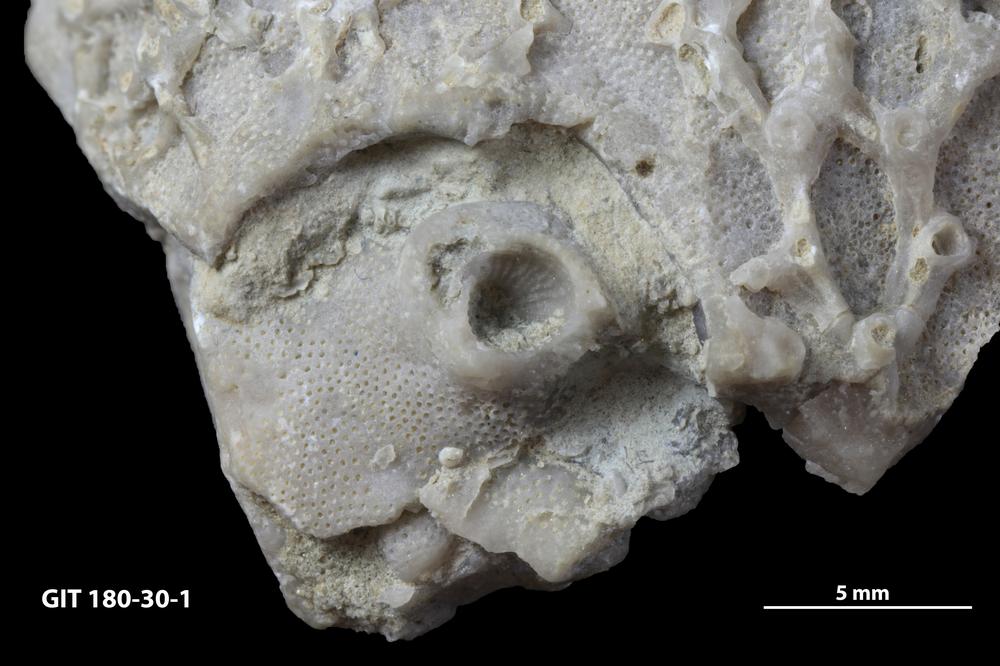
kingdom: Animalia
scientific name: Animalia
